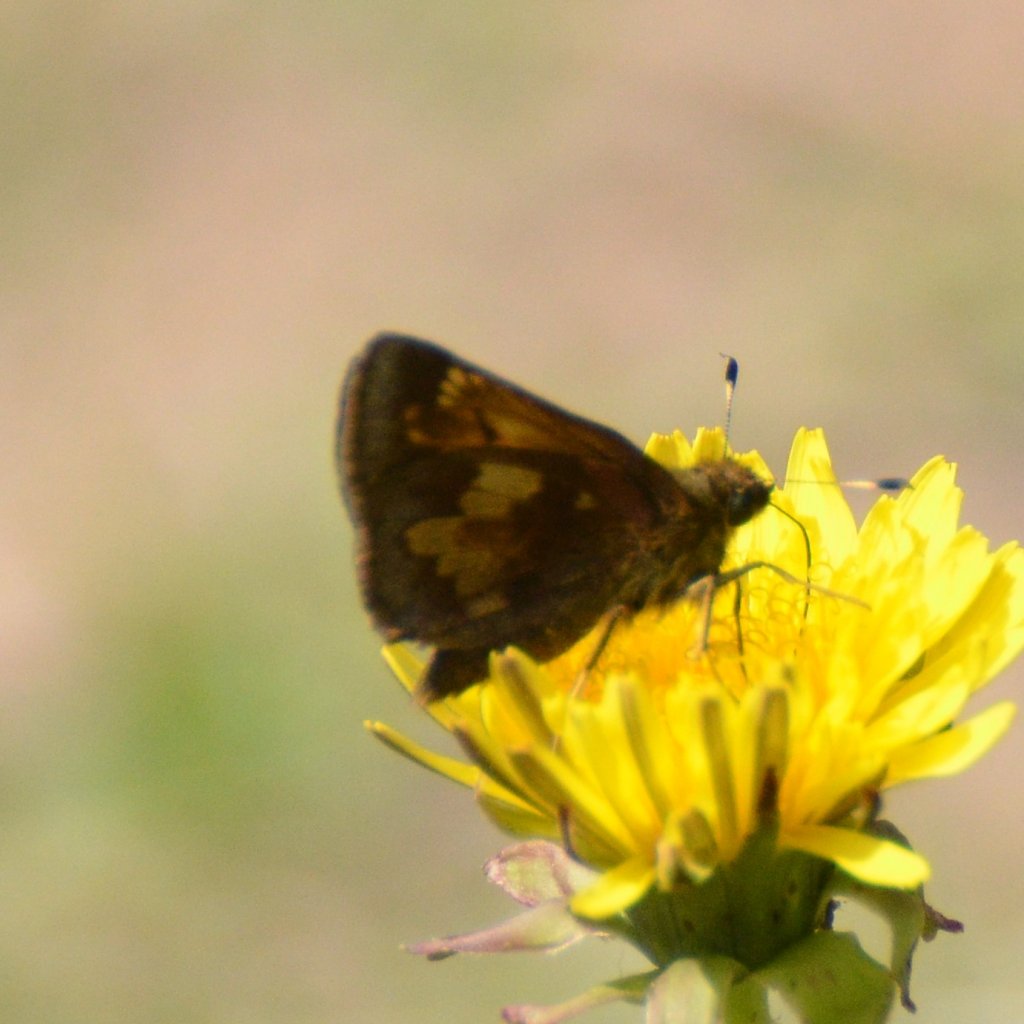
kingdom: Animalia
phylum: Arthropoda
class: Insecta
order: Lepidoptera
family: Hesperiidae
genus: Lon
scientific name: Lon hobomok
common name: Hobomok Skipper
